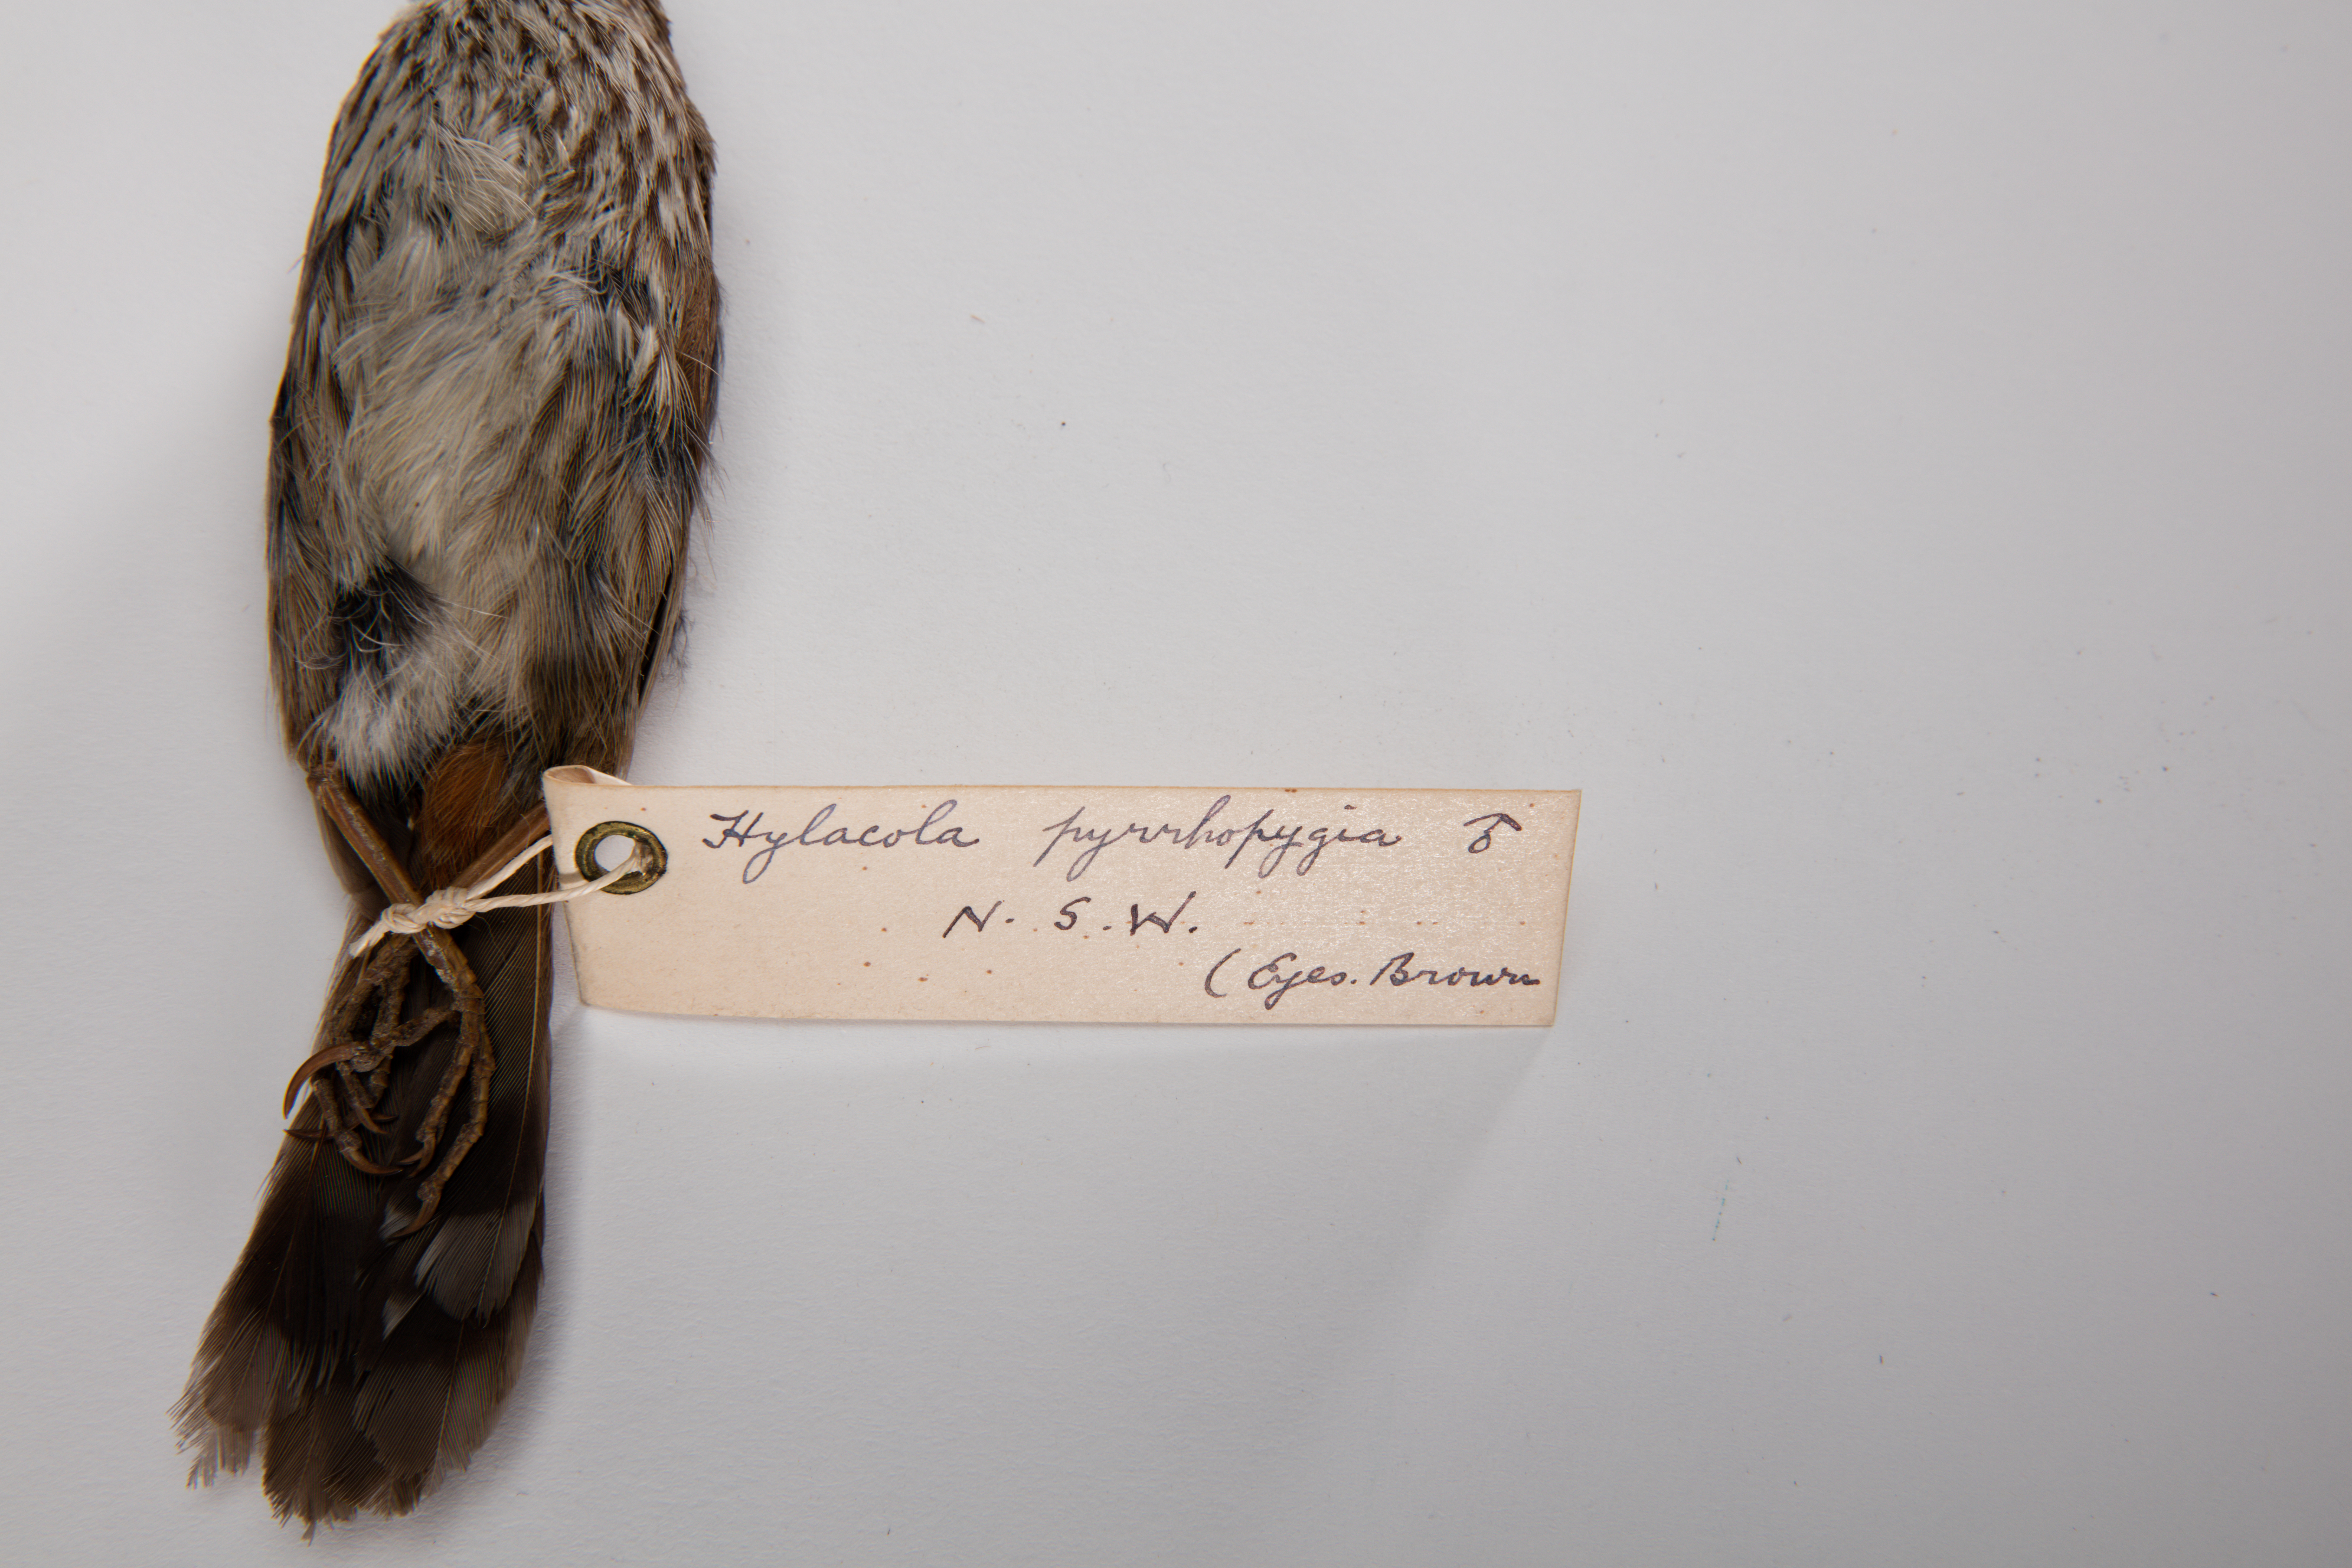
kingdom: Animalia
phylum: Chordata
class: Aves
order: Passeriformes
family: Acanthizidae
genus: Calamanthus
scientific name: Calamanthus pyrrhopygius
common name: Chestnut-rumped heathwren
